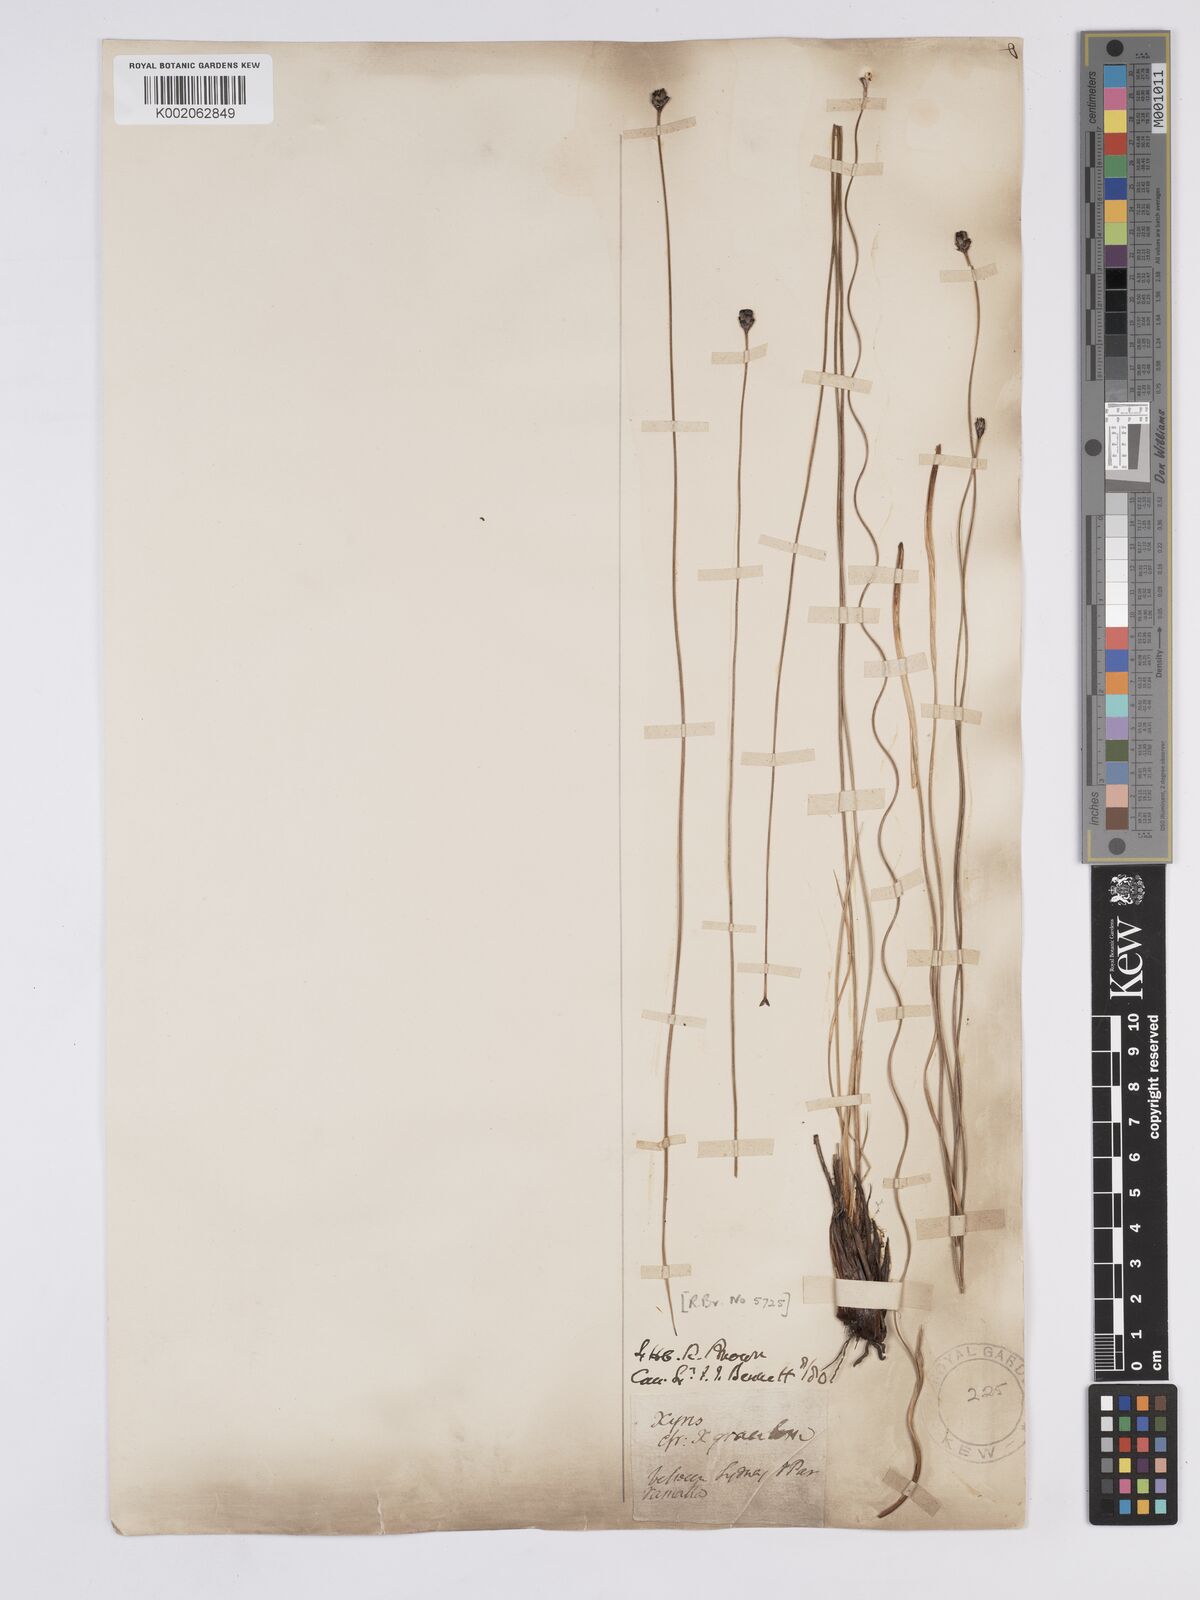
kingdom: Plantae
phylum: Tracheophyta
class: Liliopsida
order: Poales
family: Xyridaceae
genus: Xyris
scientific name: Xyris gracilis
